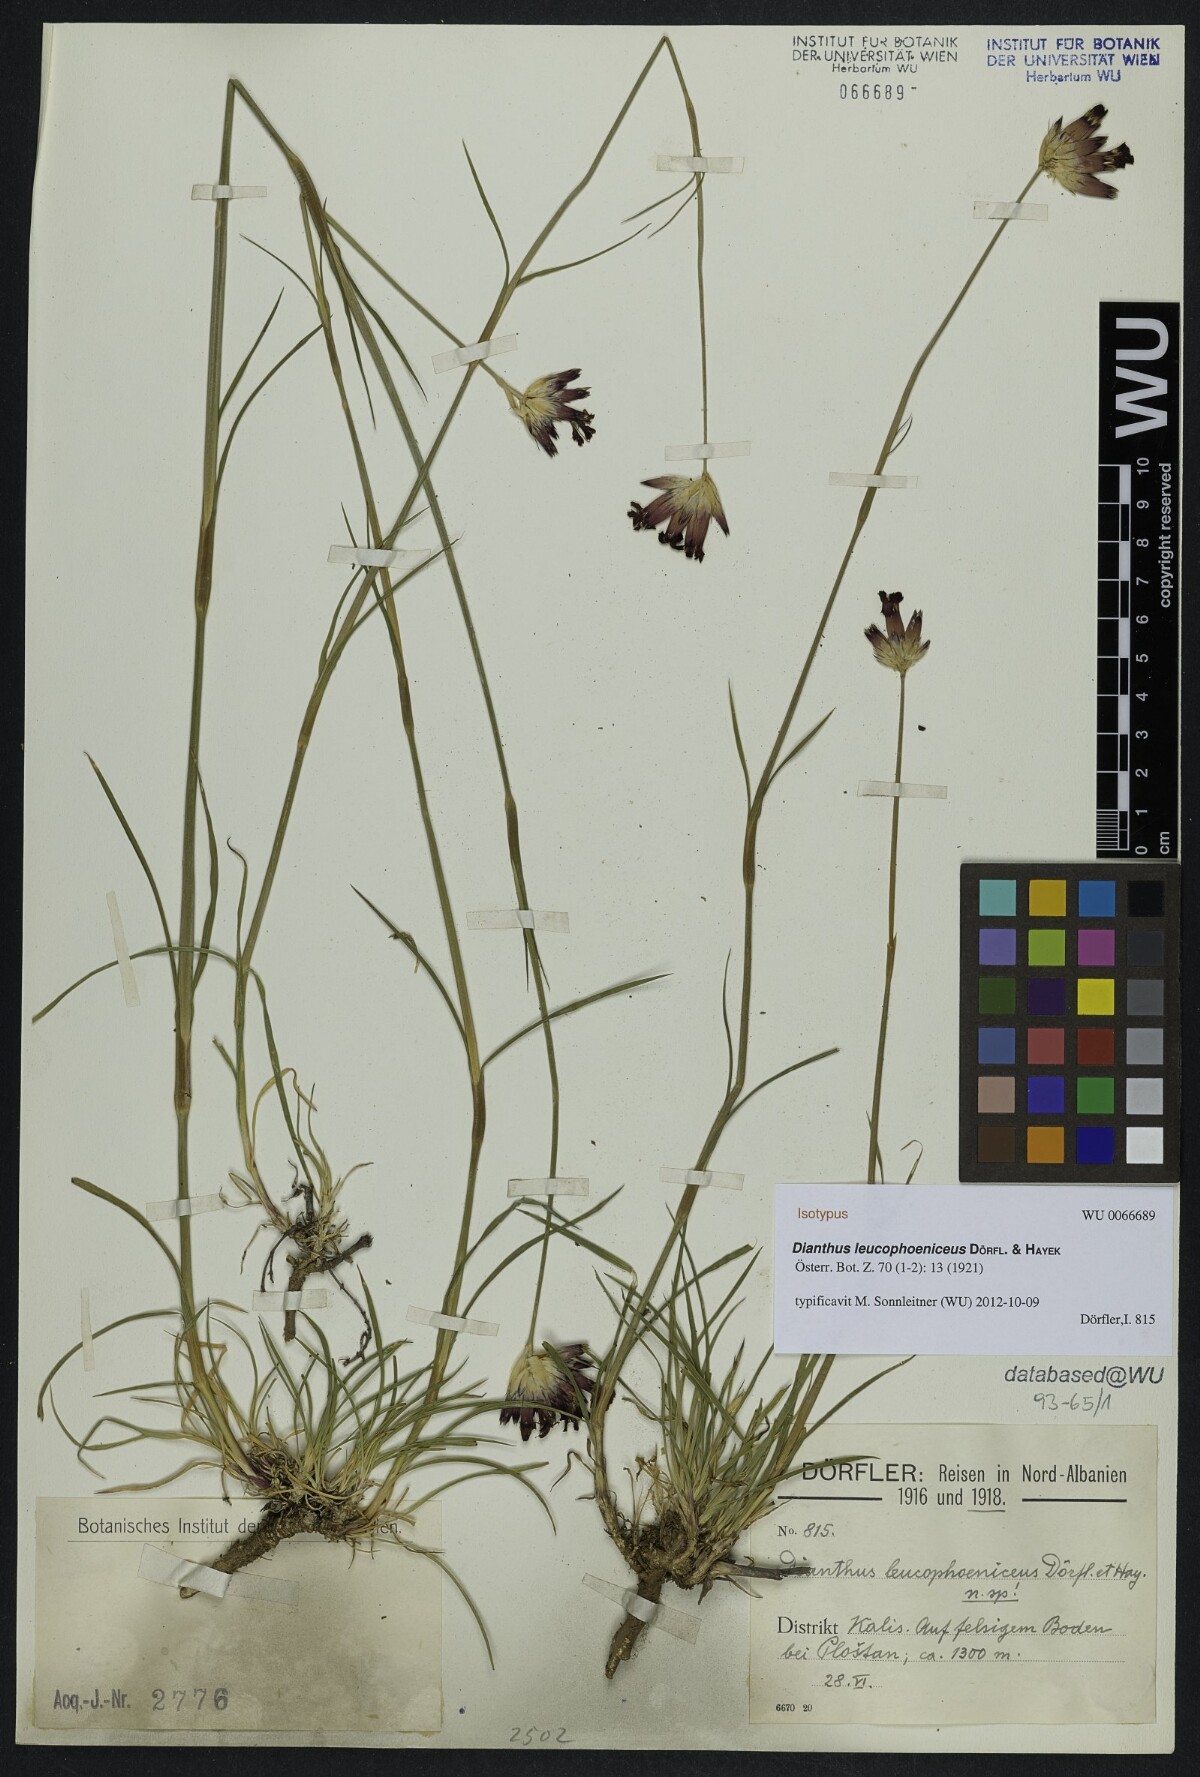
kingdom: Plantae
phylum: Tracheophyta
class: Magnoliopsida
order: Caryophyllales
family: Caryophyllaceae
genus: Dianthus
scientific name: Dianthus leucophoeniceus
